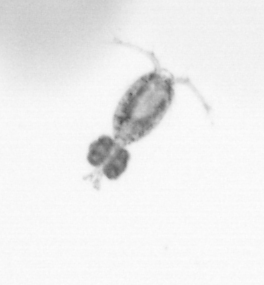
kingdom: Animalia
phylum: Arthropoda
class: Copepoda
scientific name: Copepoda
